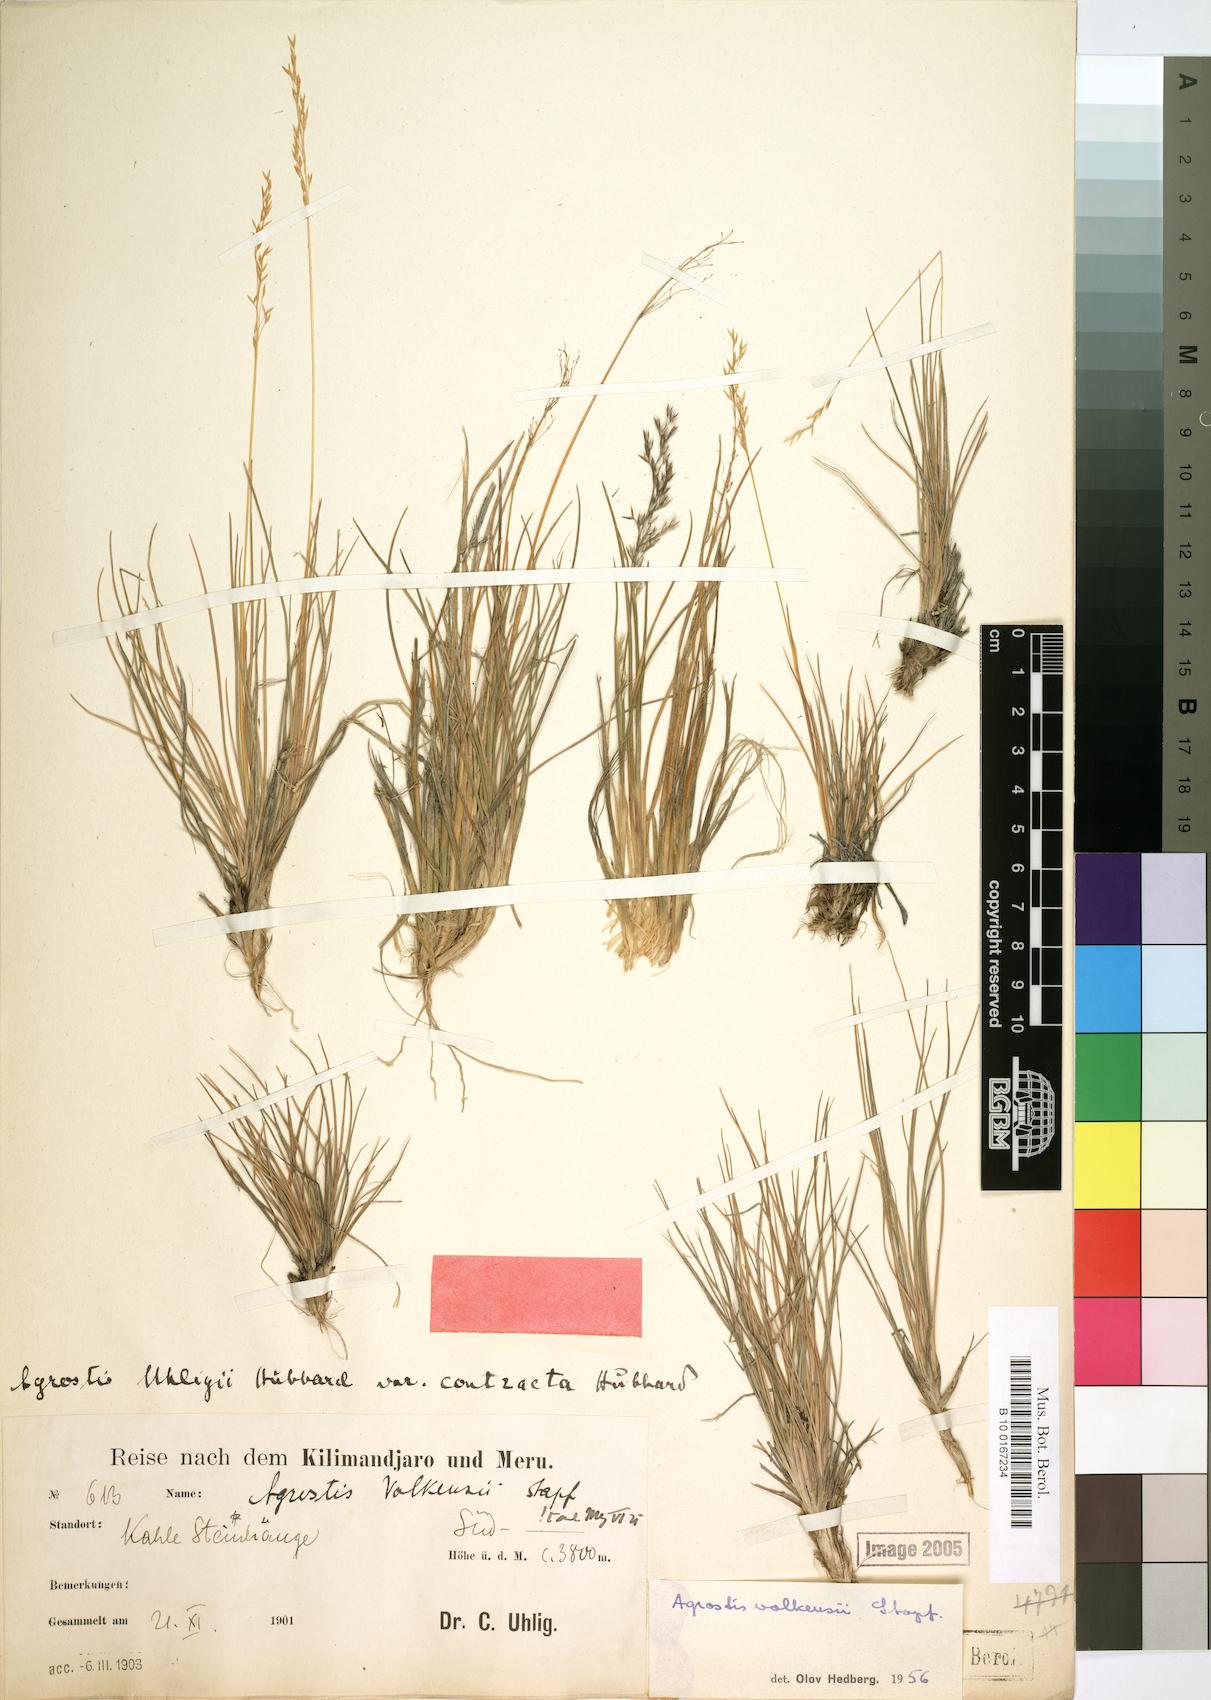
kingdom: Plantae
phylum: Tracheophyta
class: Liliopsida
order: Poales
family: Poaceae
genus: Agrostis
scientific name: Agrostis volkensii
